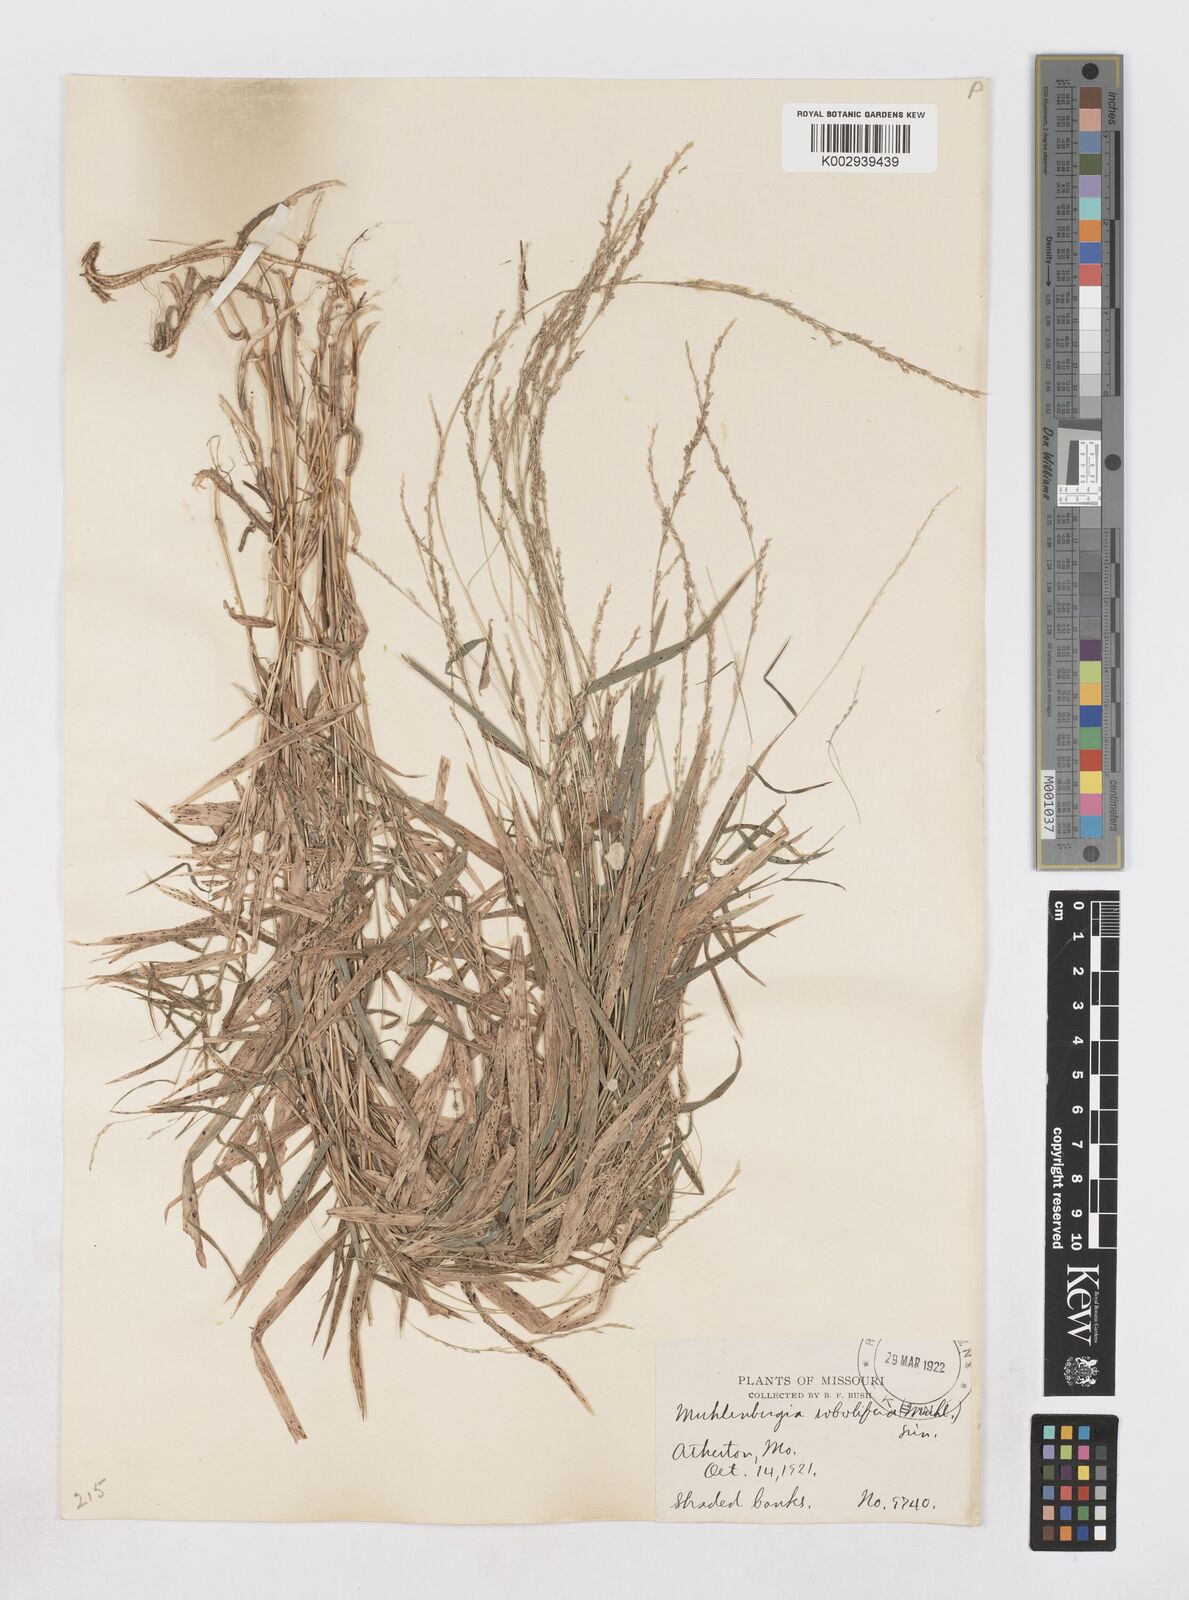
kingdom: Plantae
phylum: Tracheophyta
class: Liliopsida
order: Poales
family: Poaceae
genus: Muhlenbergia
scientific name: Muhlenbergia sobolifera
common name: Creeping muhly
